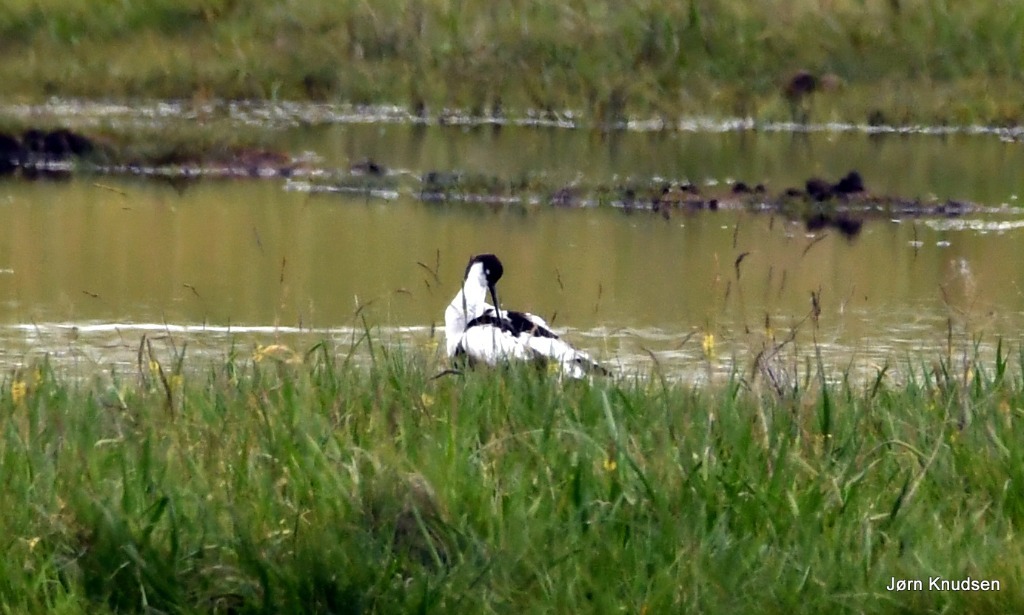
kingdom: Animalia
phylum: Chordata
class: Aves
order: Charadriiformes
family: Recurvirostridae
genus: Recurvirostra
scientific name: Recurvirostra avosetta
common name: Klyde
